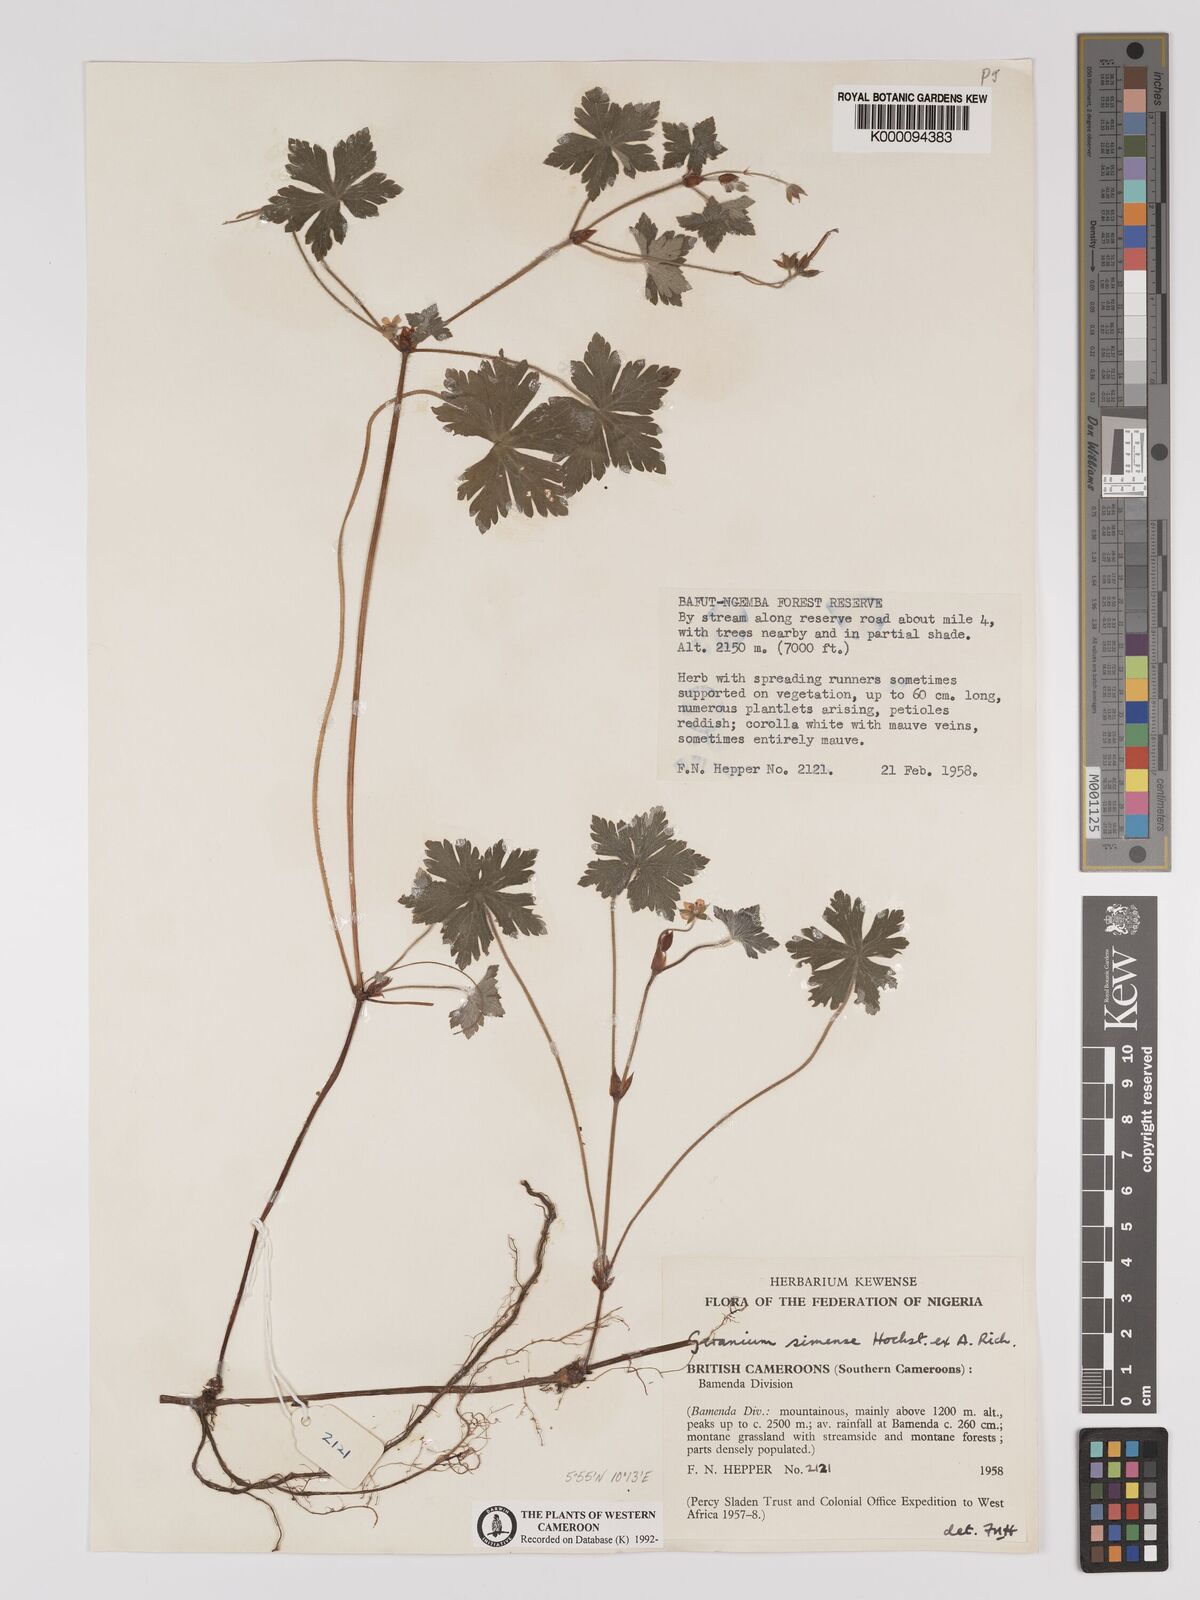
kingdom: Plantae
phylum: Tracheophyta
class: Magnoliopsida
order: Geraniales
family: Geraniaceae
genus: Geranium
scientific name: Geranium arabicum
